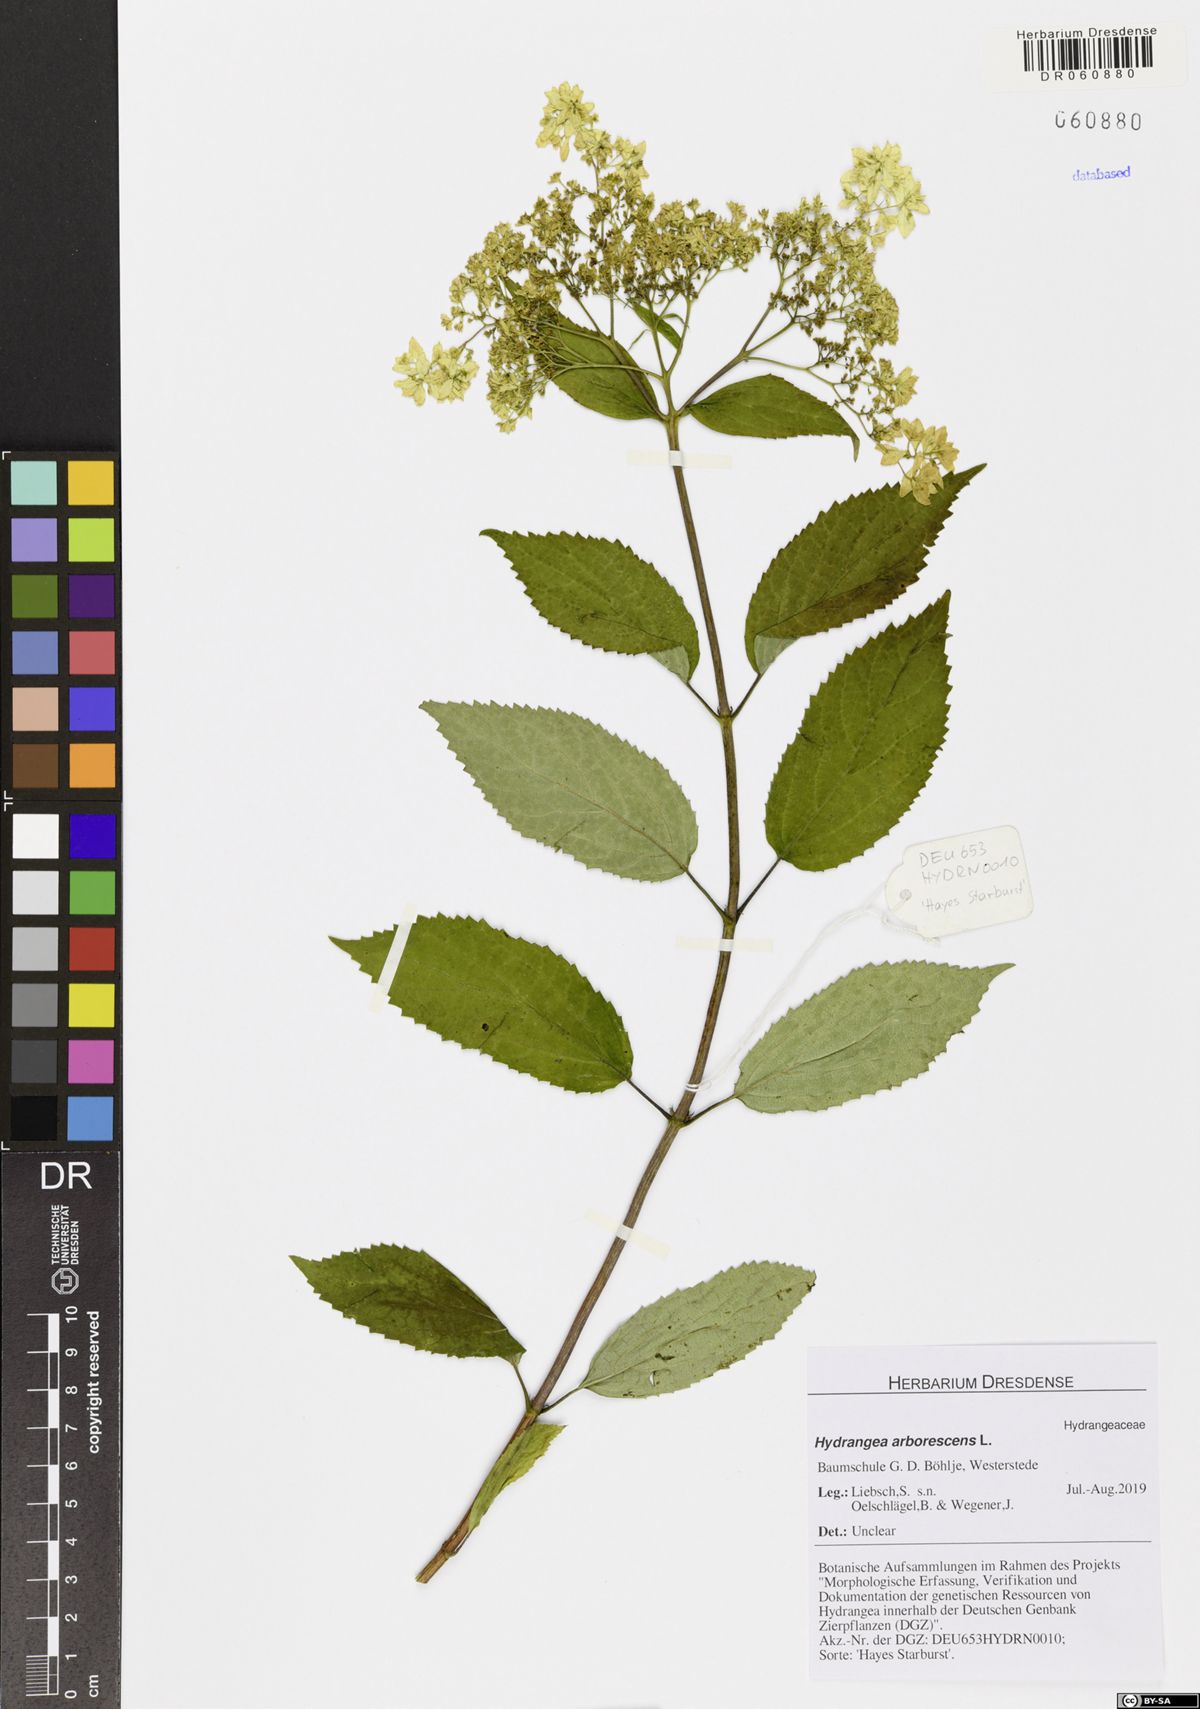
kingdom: Plantae
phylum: Tracheophyta
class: Magnoliopsida
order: Cornales
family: Hydrangeaceae
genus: Hydrangea
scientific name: Hydrangea arborescens
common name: Sevenbark
